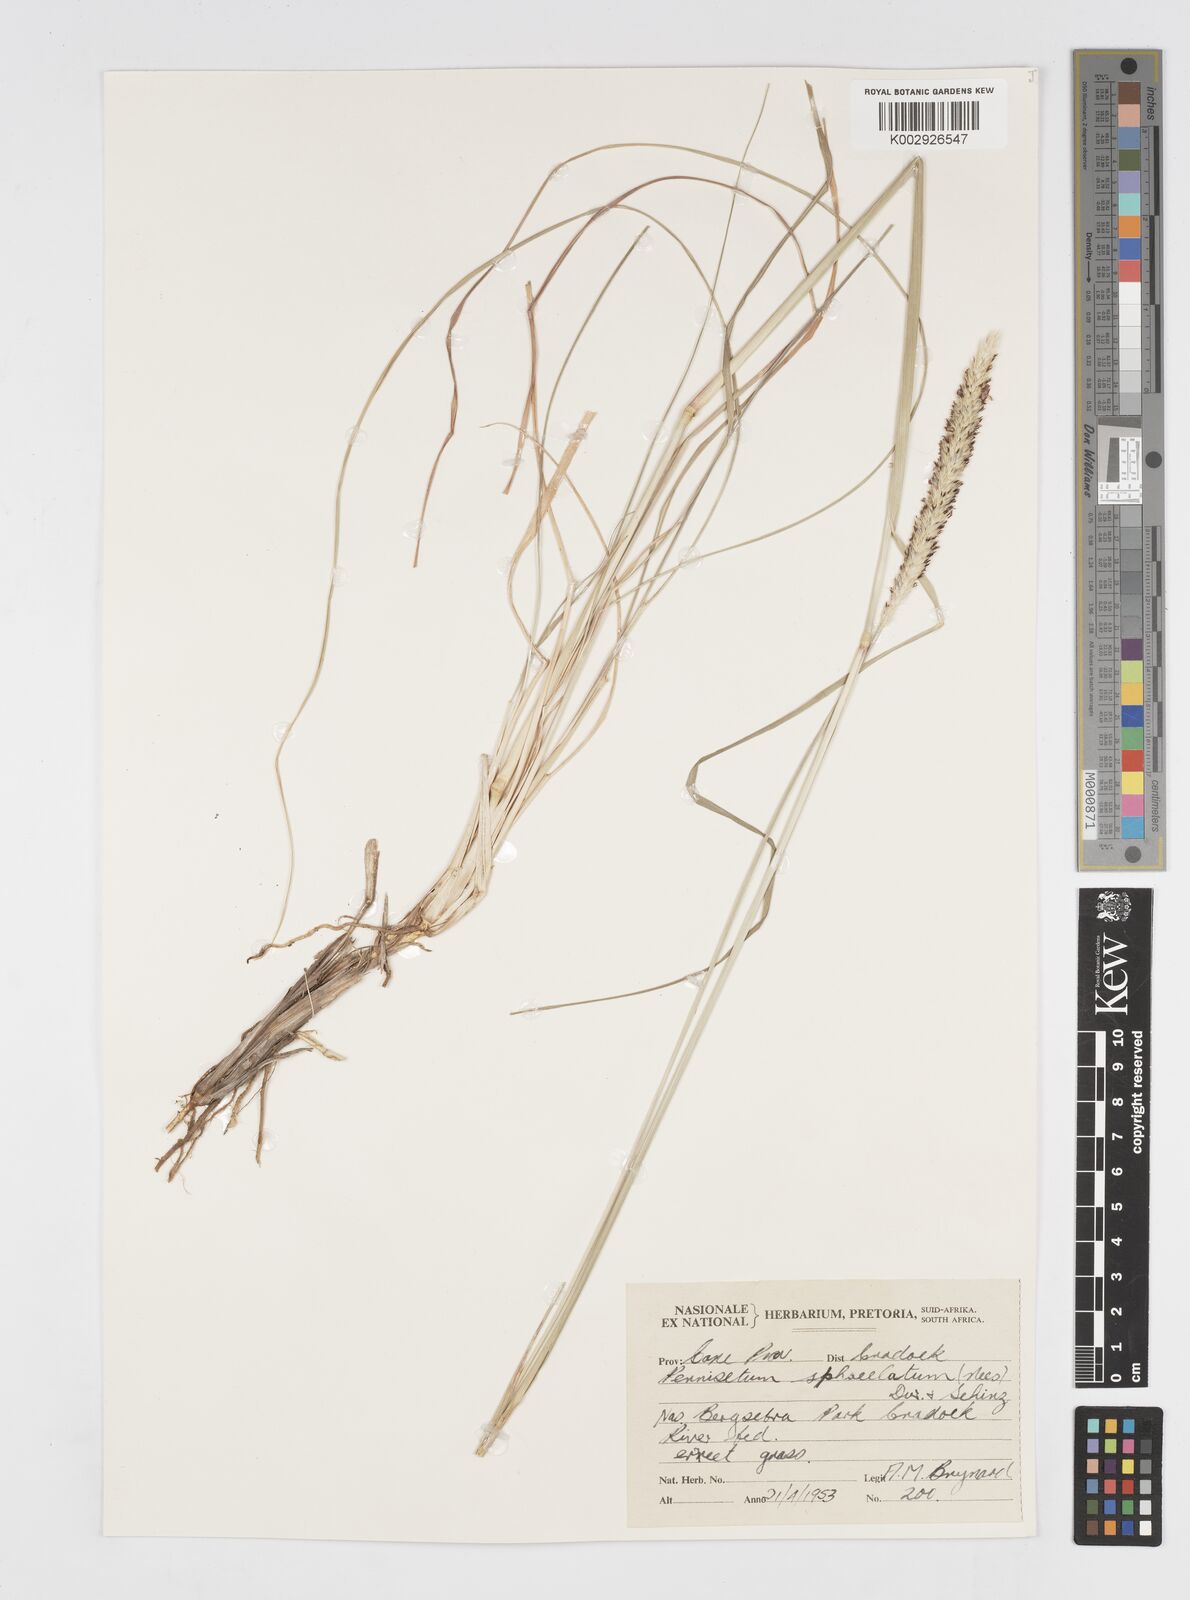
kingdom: Plantae
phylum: Tracheophyta
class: Liliopsida
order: Poales
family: Poaceae
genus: Cenchrus
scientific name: Cenchrus sphacelatus
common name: Bulgras
